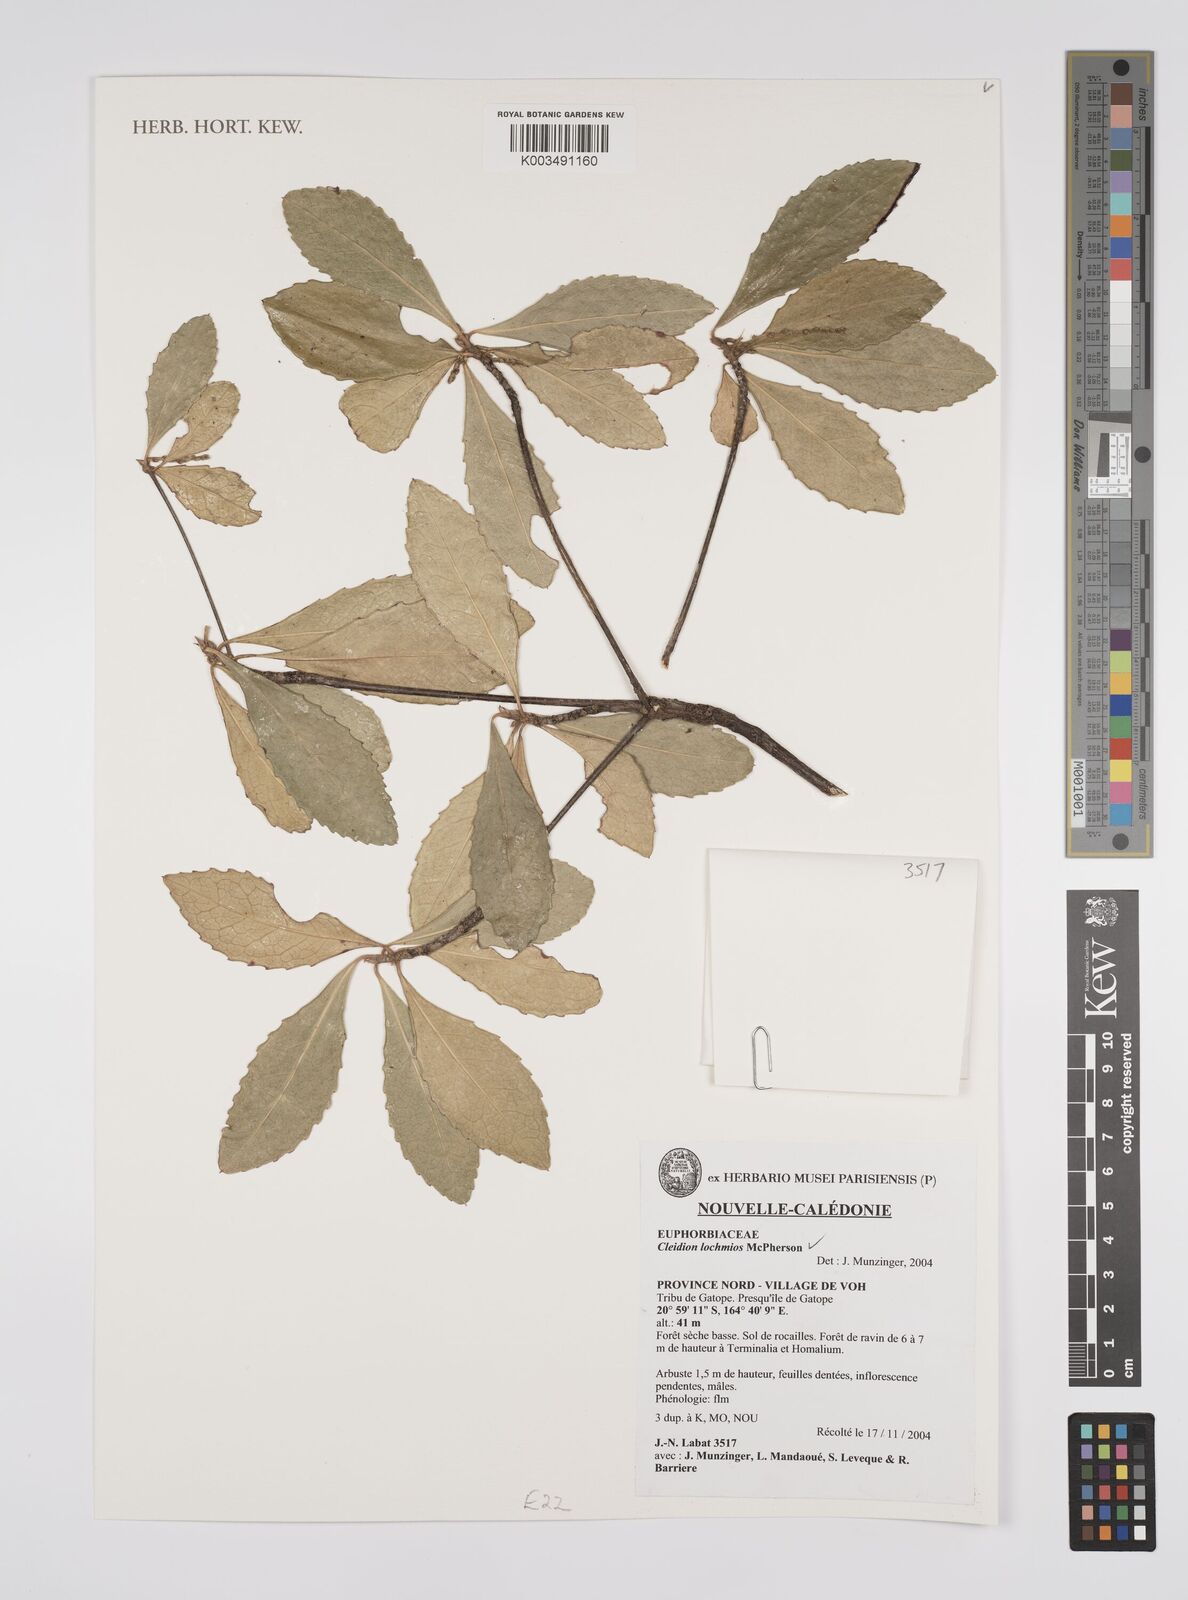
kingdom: Plantae
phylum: Tracheophyta
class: Magnoliopsida
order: Malpighiales
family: Euphorbiaceae
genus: Cleidion
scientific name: Cleidion lochmios
